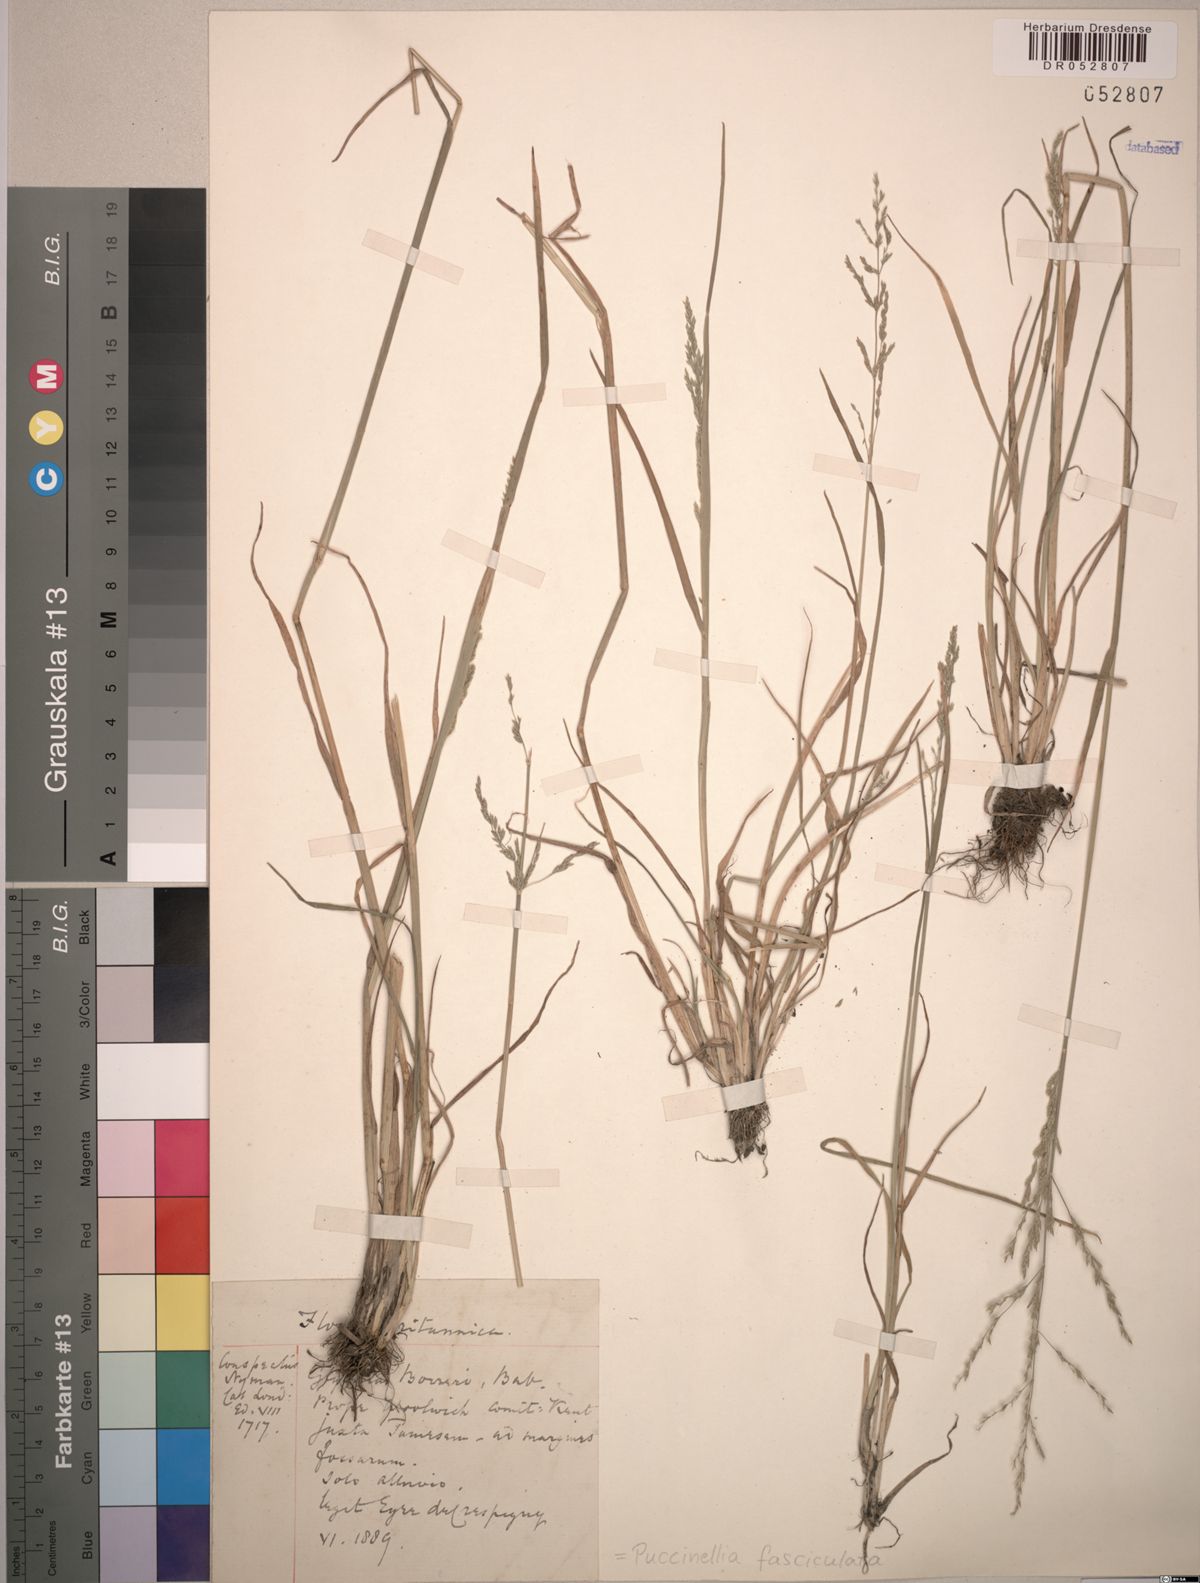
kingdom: Plantae
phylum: Tracheophyta
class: Liliopsida
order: Poales
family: Poaceae
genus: Puccinellia
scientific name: Puccinellia fasciculata
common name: Borrer's saltmarsh-grass
